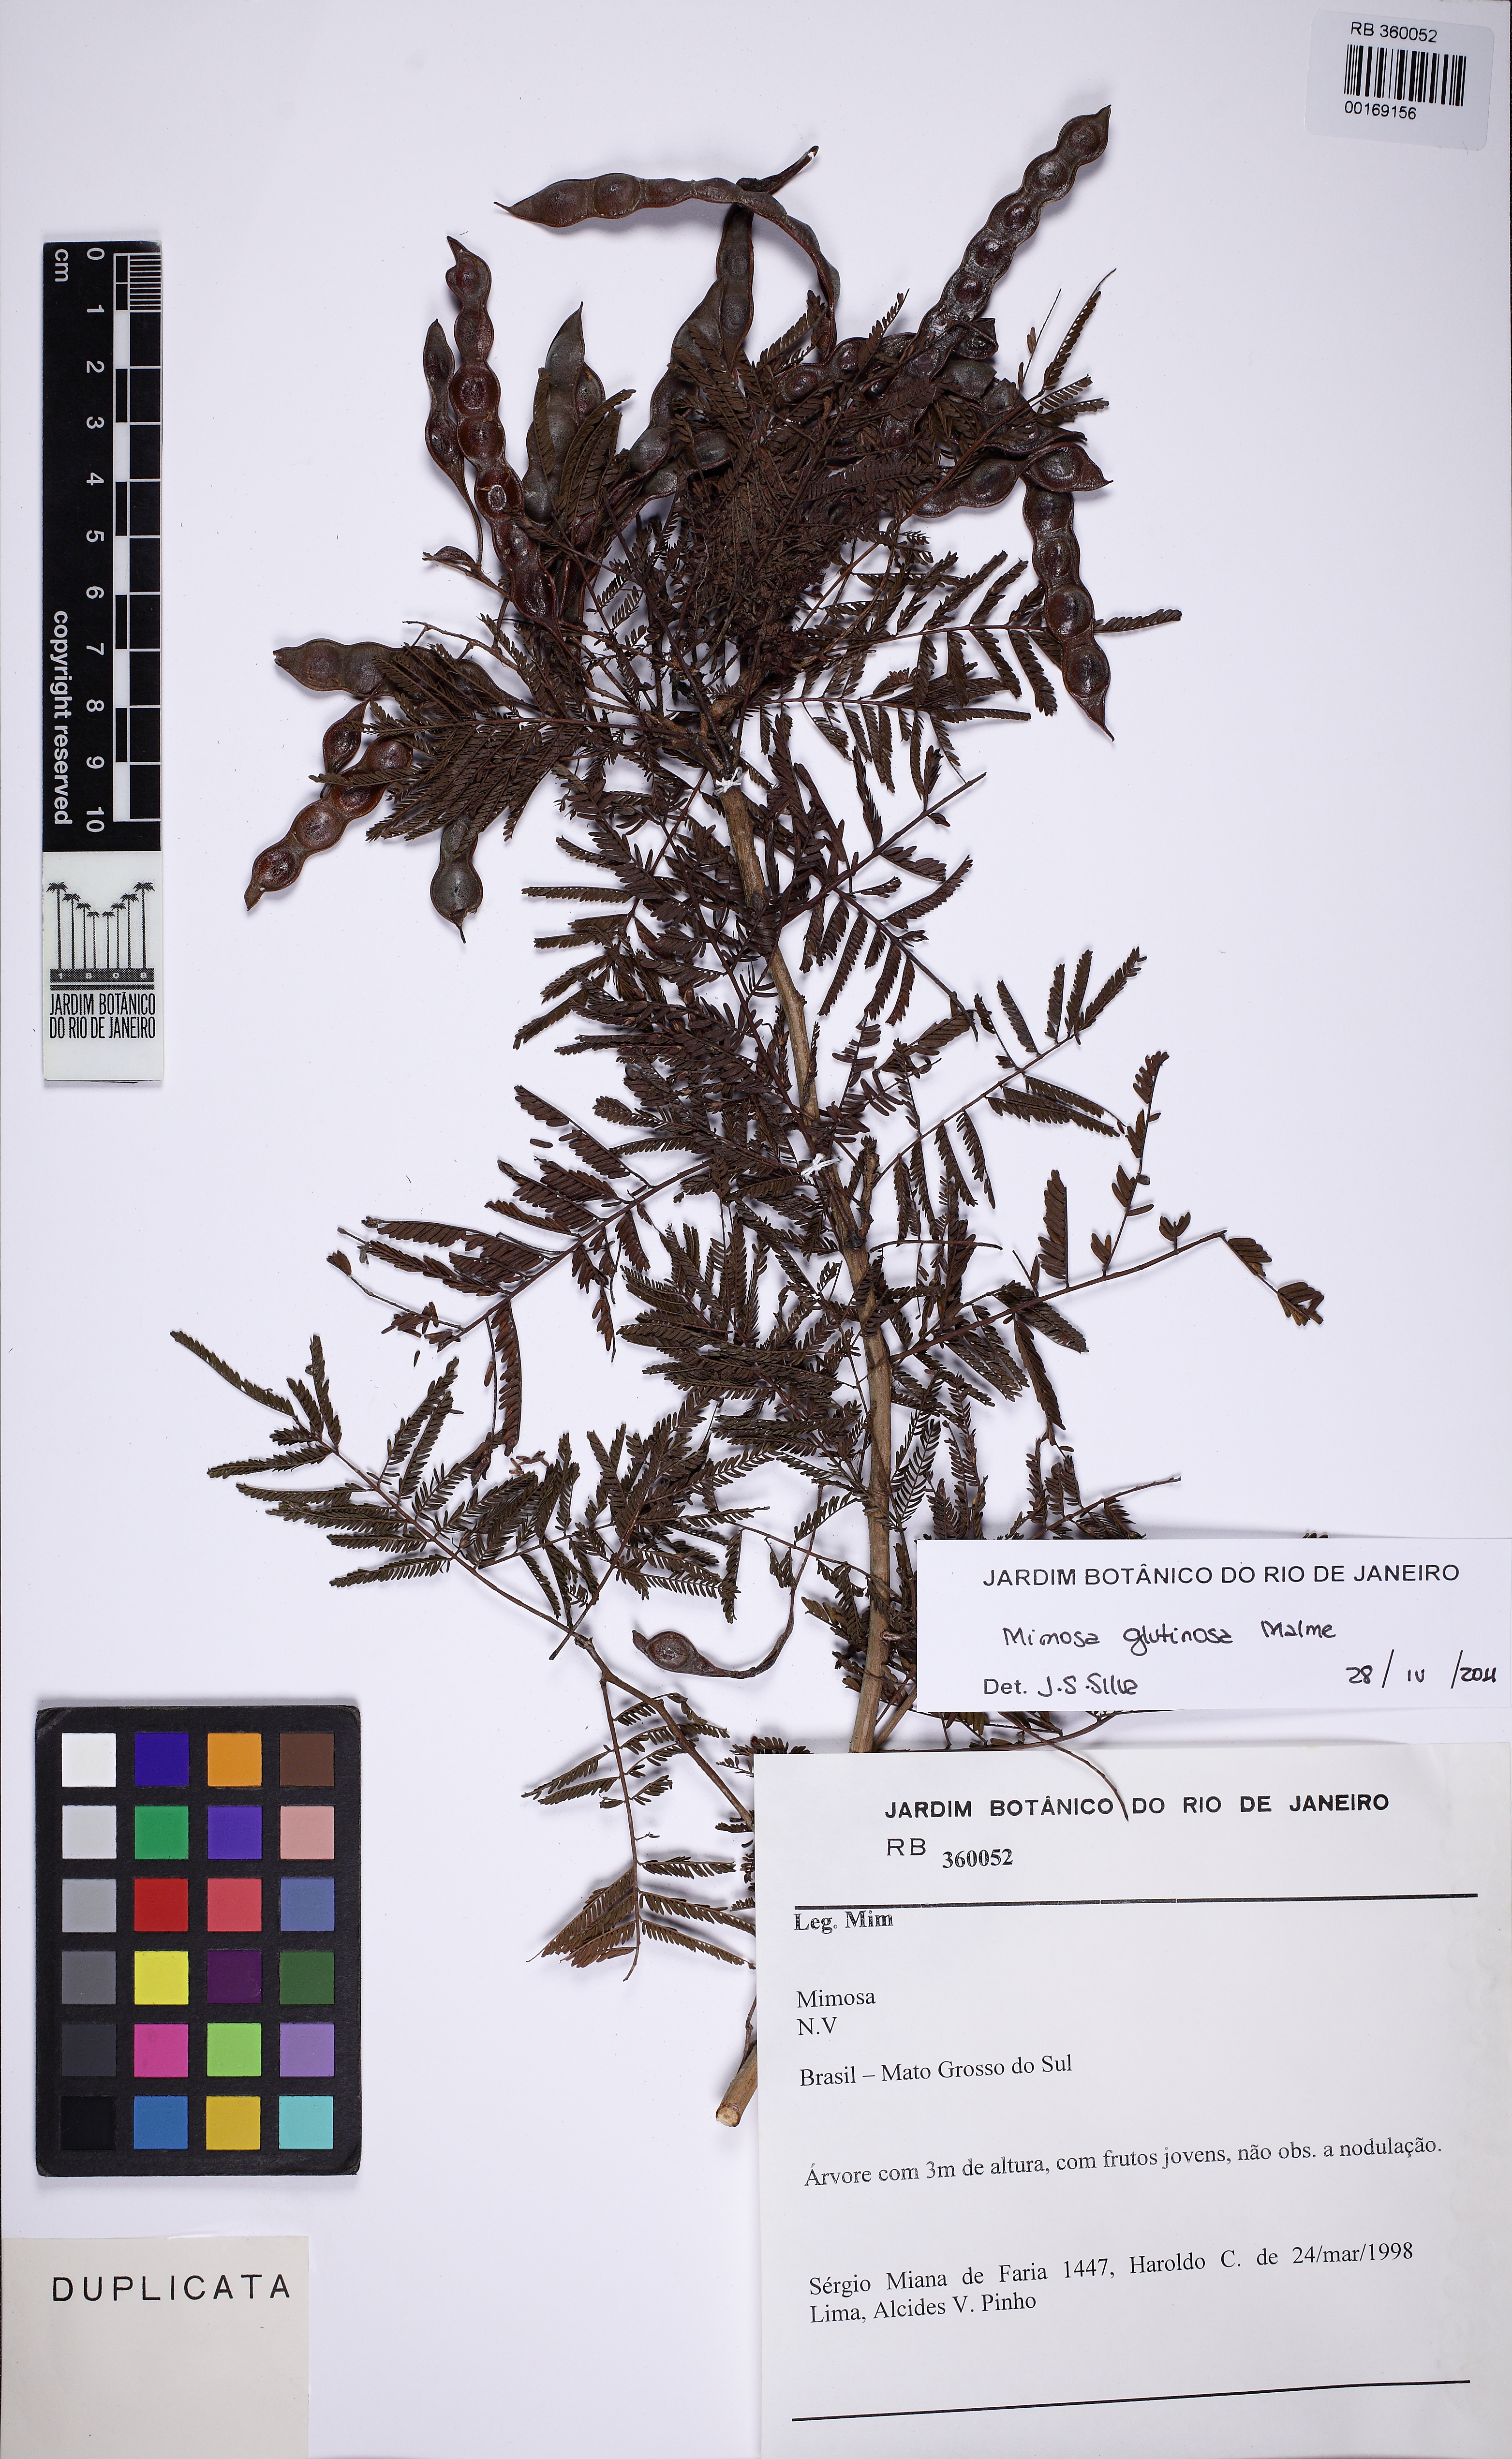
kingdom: Plantae
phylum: Tracheophyta
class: Magnoliopsida
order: Fabales
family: Fabaceae
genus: Mimosa
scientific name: Mimosa glutinosa
